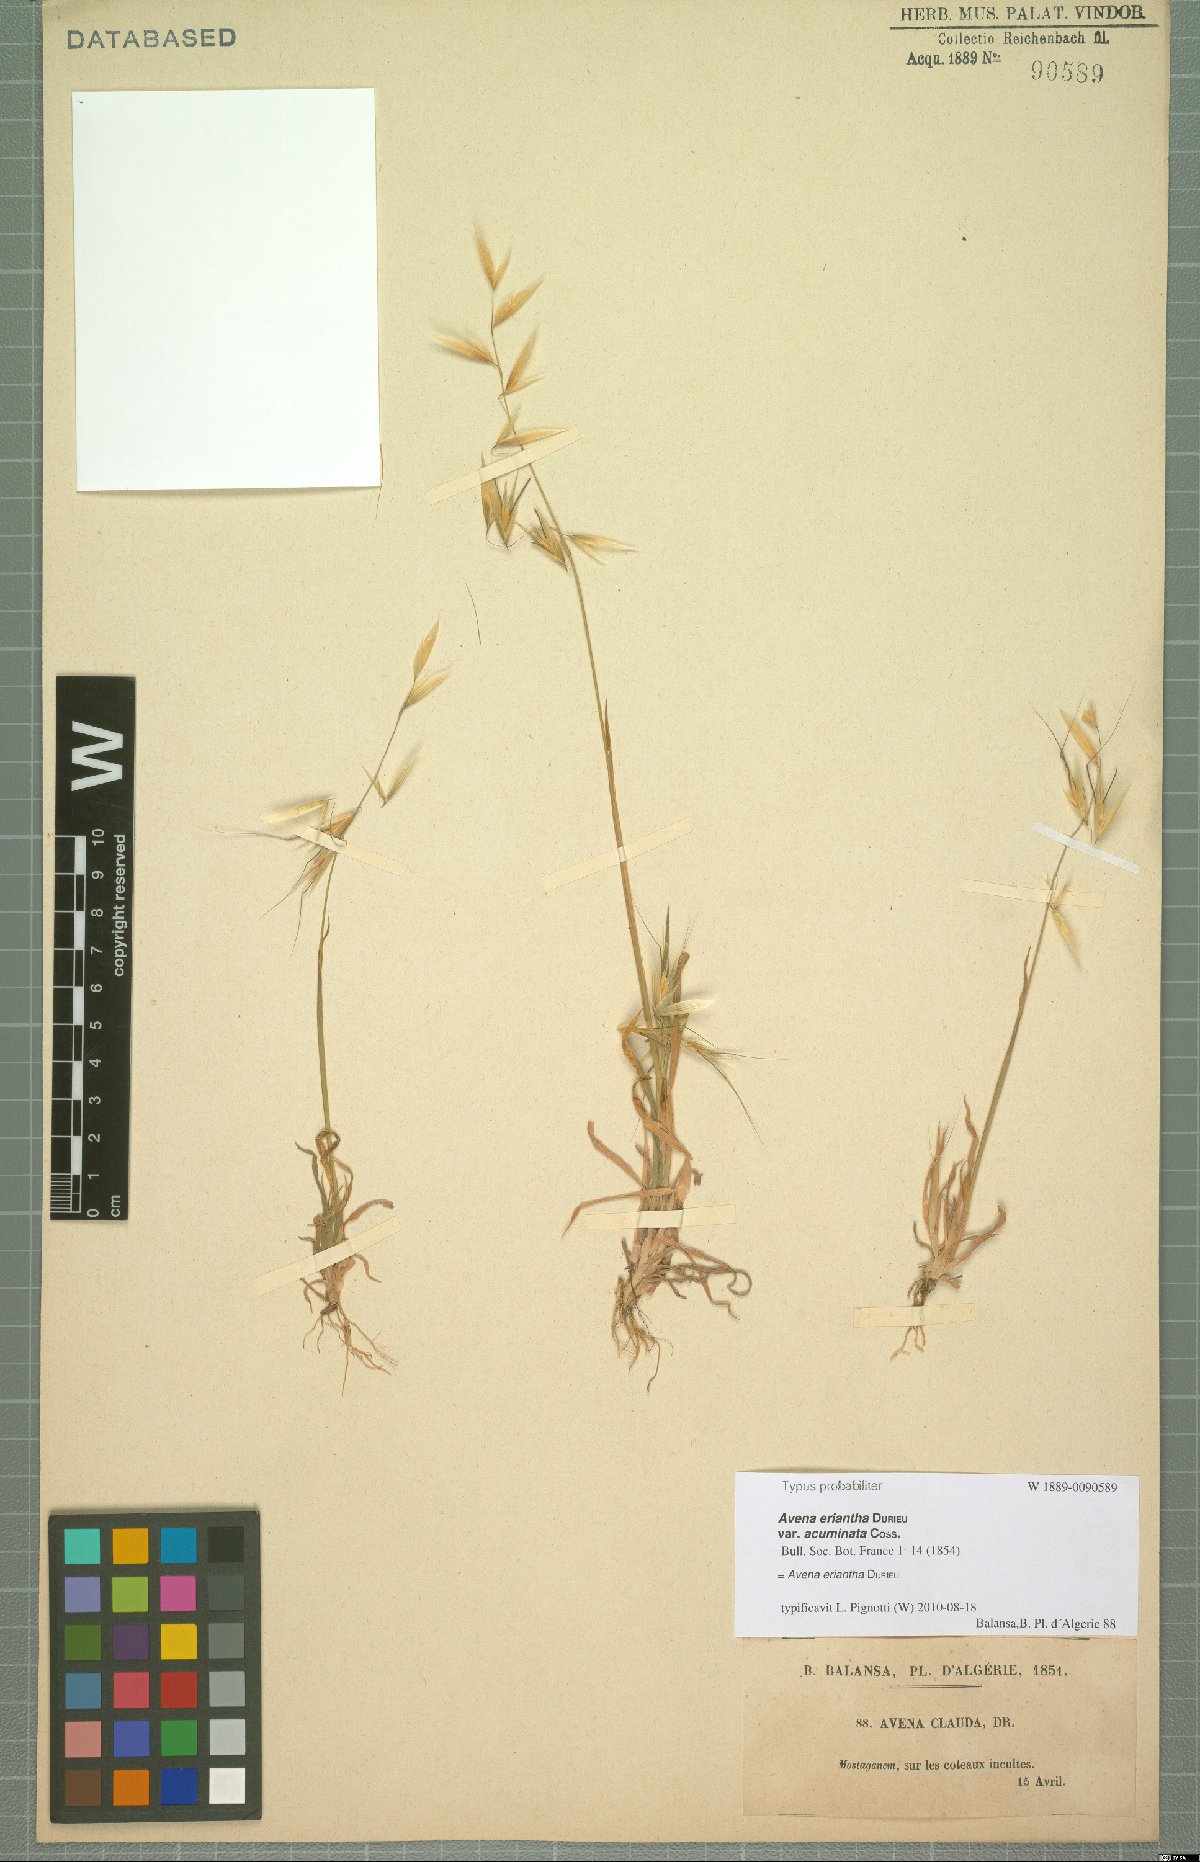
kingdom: Plantae
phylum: Tracheophyta
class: Liliopsida
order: Poales
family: Poaceae
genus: Avena
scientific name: Avena eriantha
